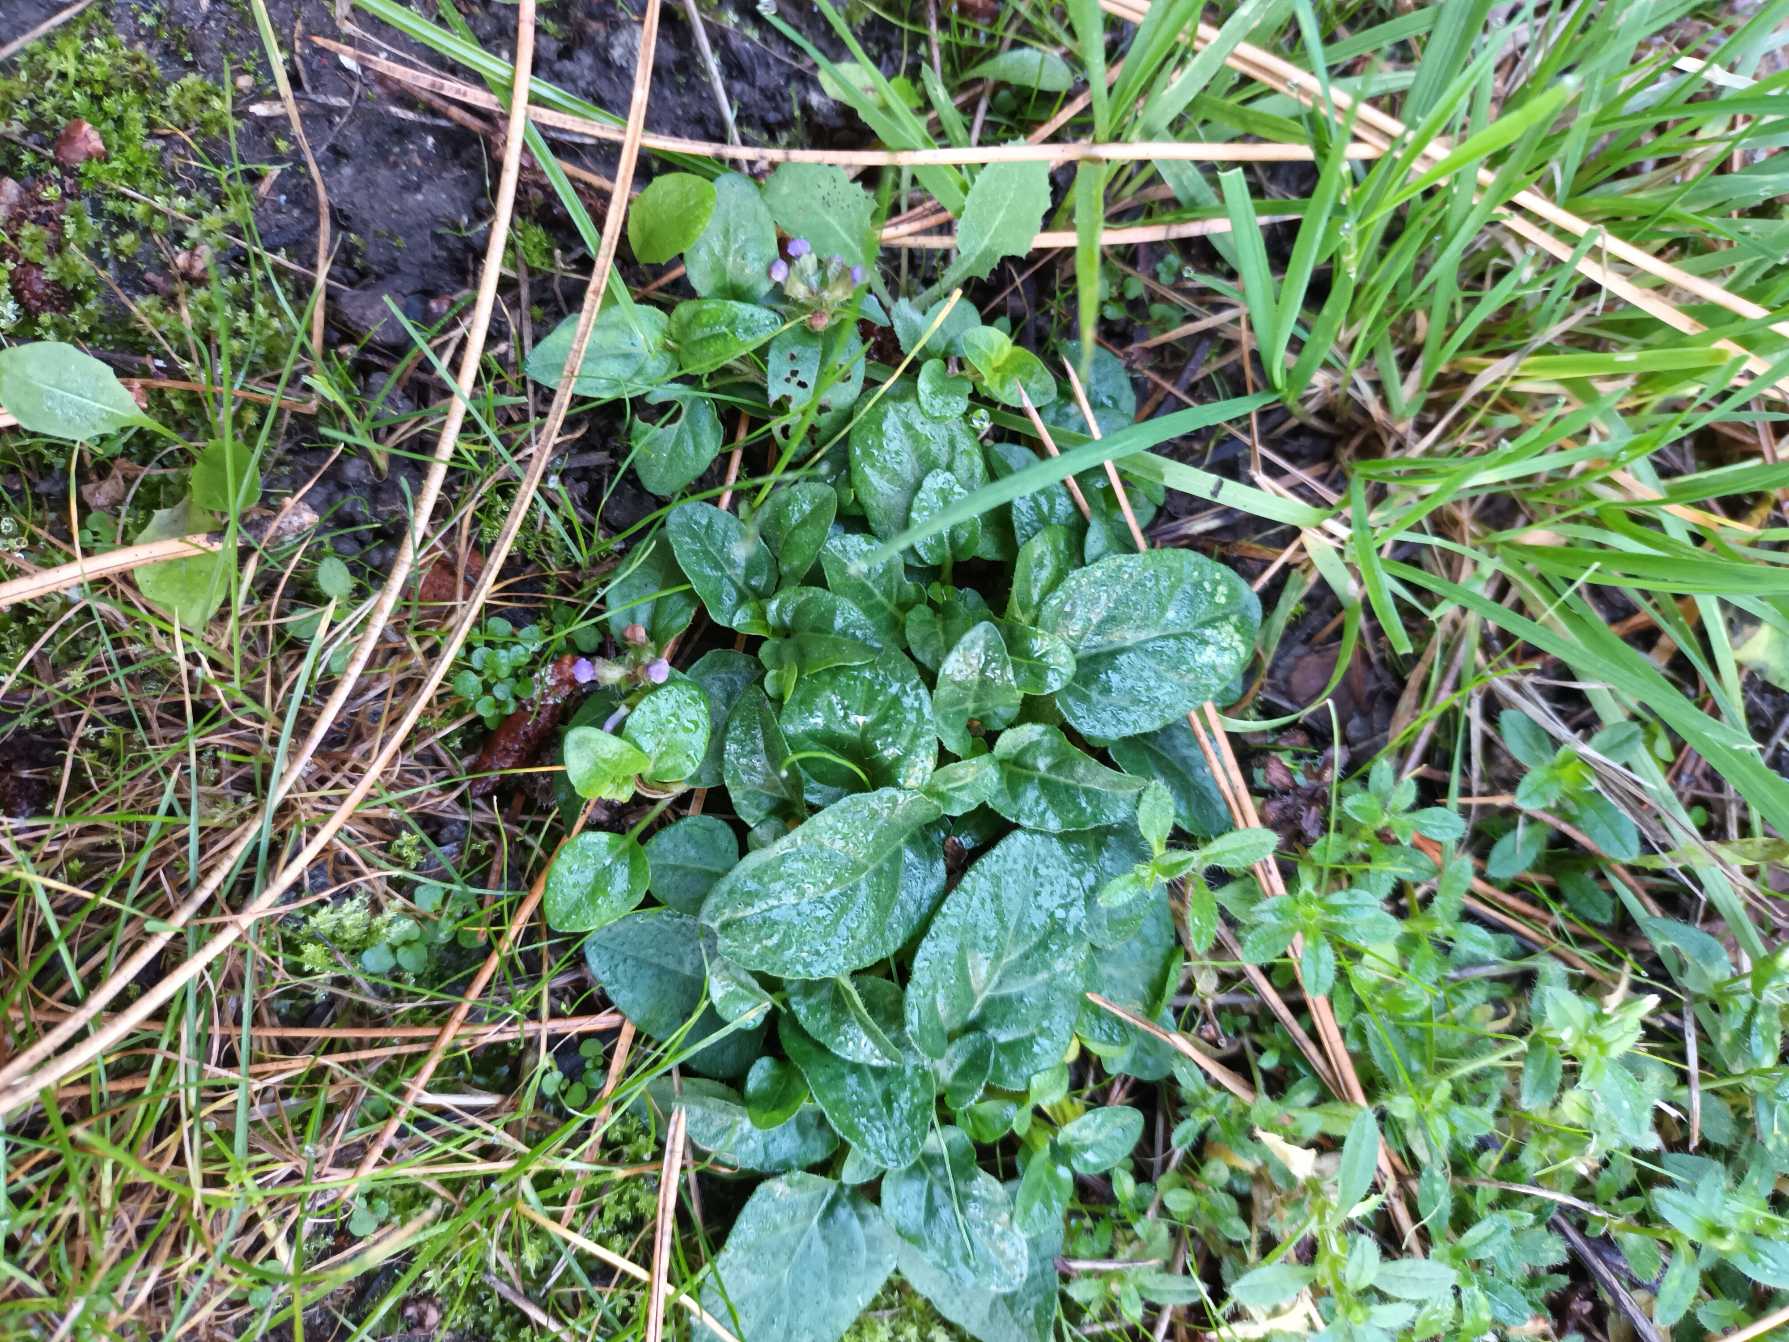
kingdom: Plantae
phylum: Tracheophyta
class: Magnoliopsida
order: Lamiales
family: Lamiaceae
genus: Prunella
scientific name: Prunella vulgaris
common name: Almindelig brunelle
